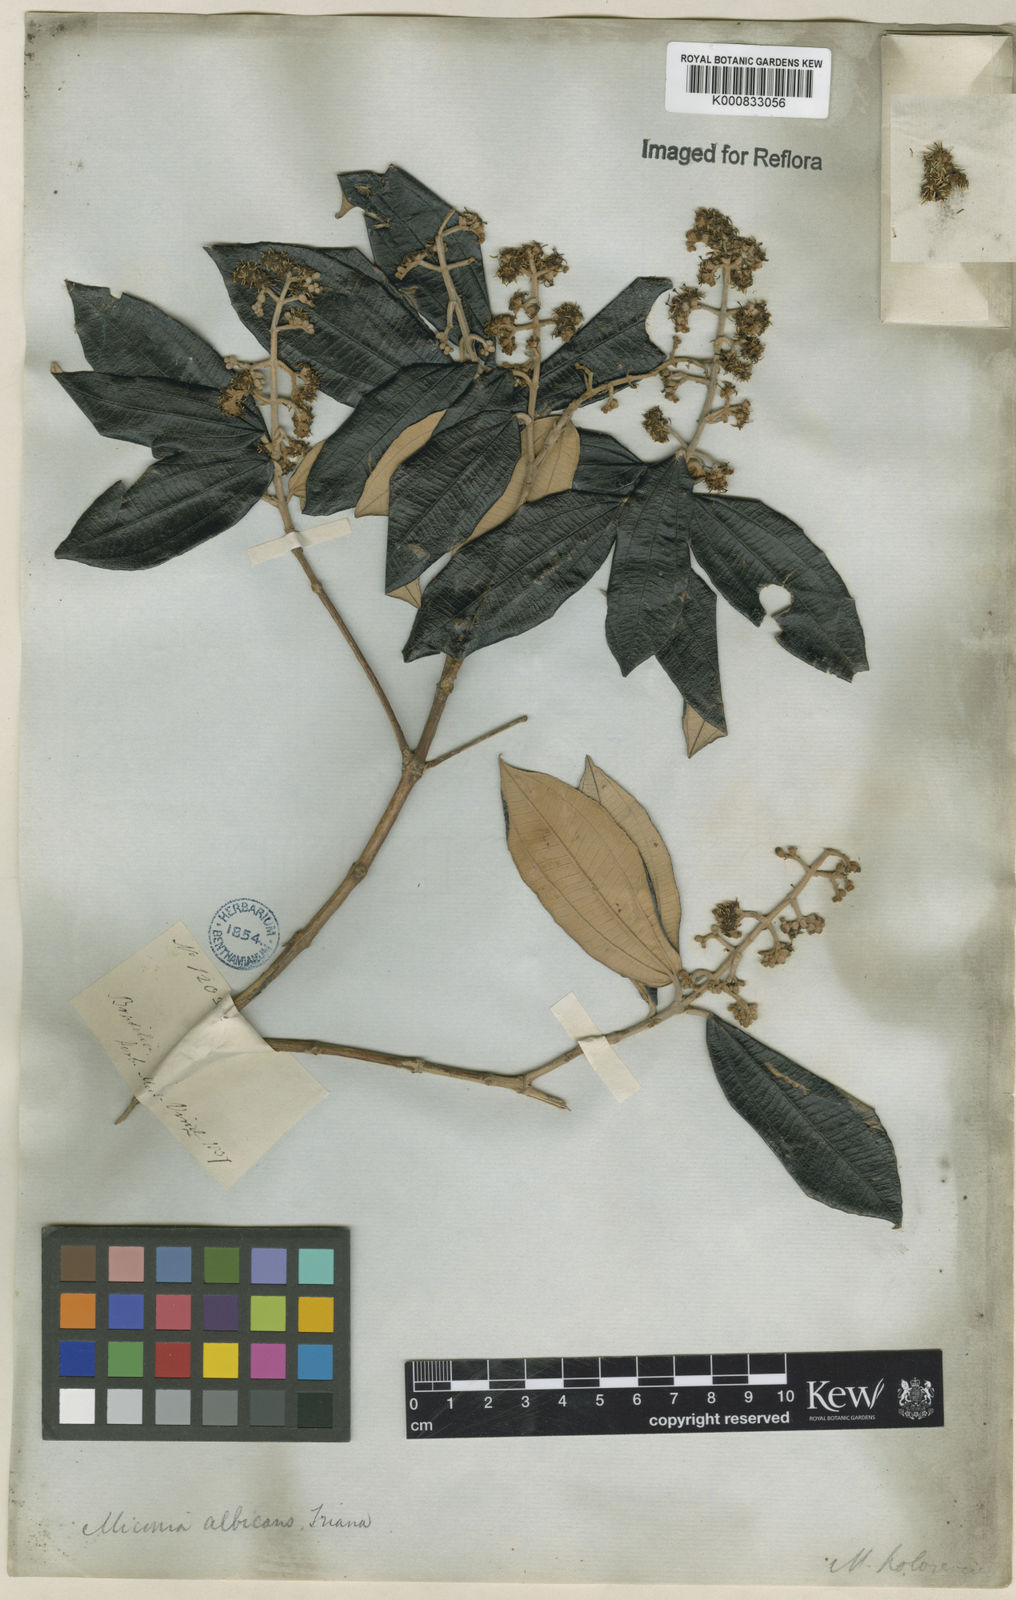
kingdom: Plantae
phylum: Tracheophyta
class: Magnoliopsida
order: Myrtales
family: Melastomataceae
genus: Miconia
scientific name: Miconia albicans
